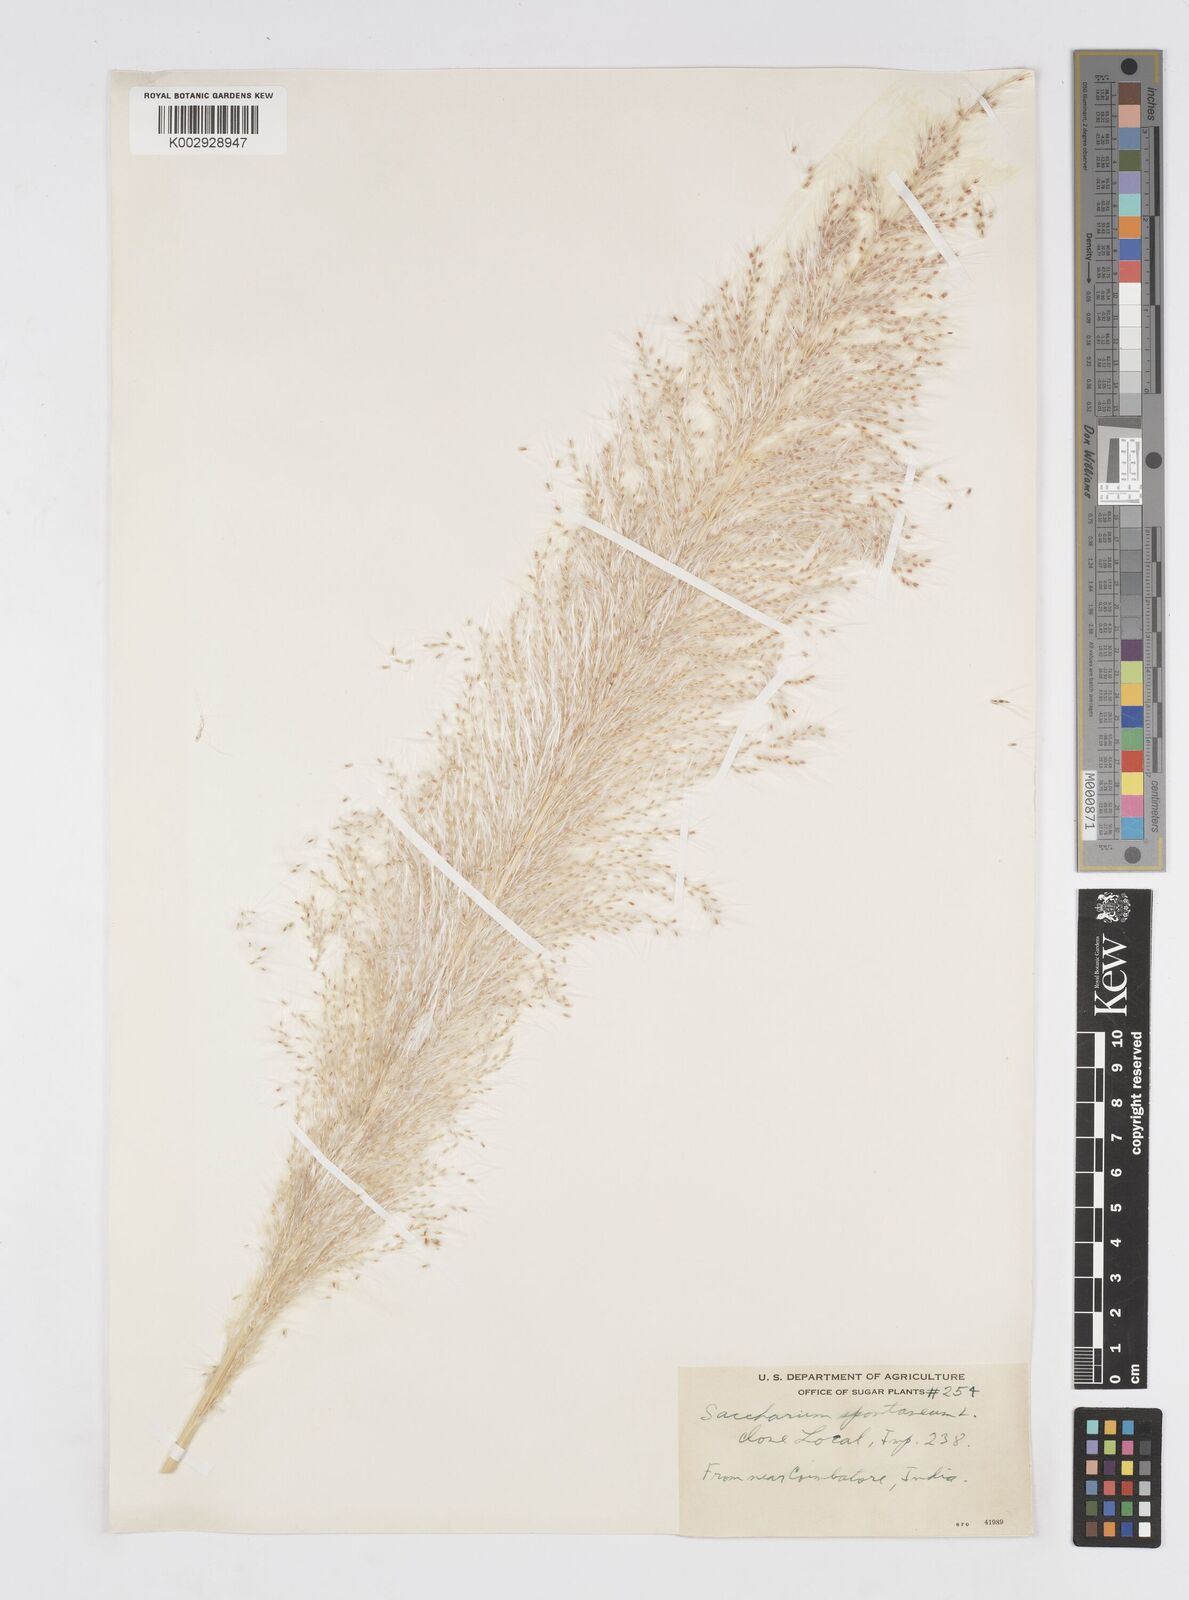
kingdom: Plantae
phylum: Tracheophyta
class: Liliopsida
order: Poales
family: Poaceae
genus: Saccharum
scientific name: Saccharum spontaneum
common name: Wild sugarcane
